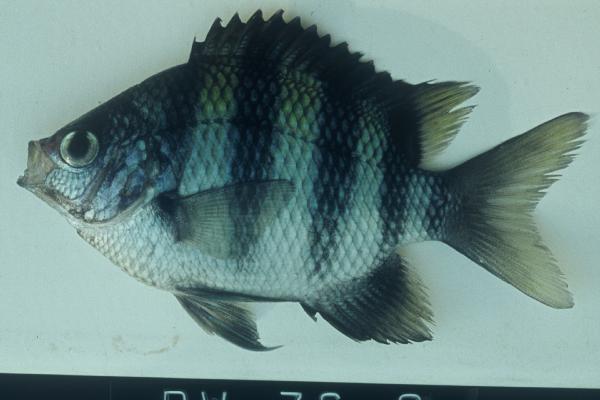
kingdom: Animalia
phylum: Chordata
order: Perciformes
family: Pomacentridae
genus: Abudefduf
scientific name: Abudefduf vaigiensis
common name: Indo-pacific sergeant
